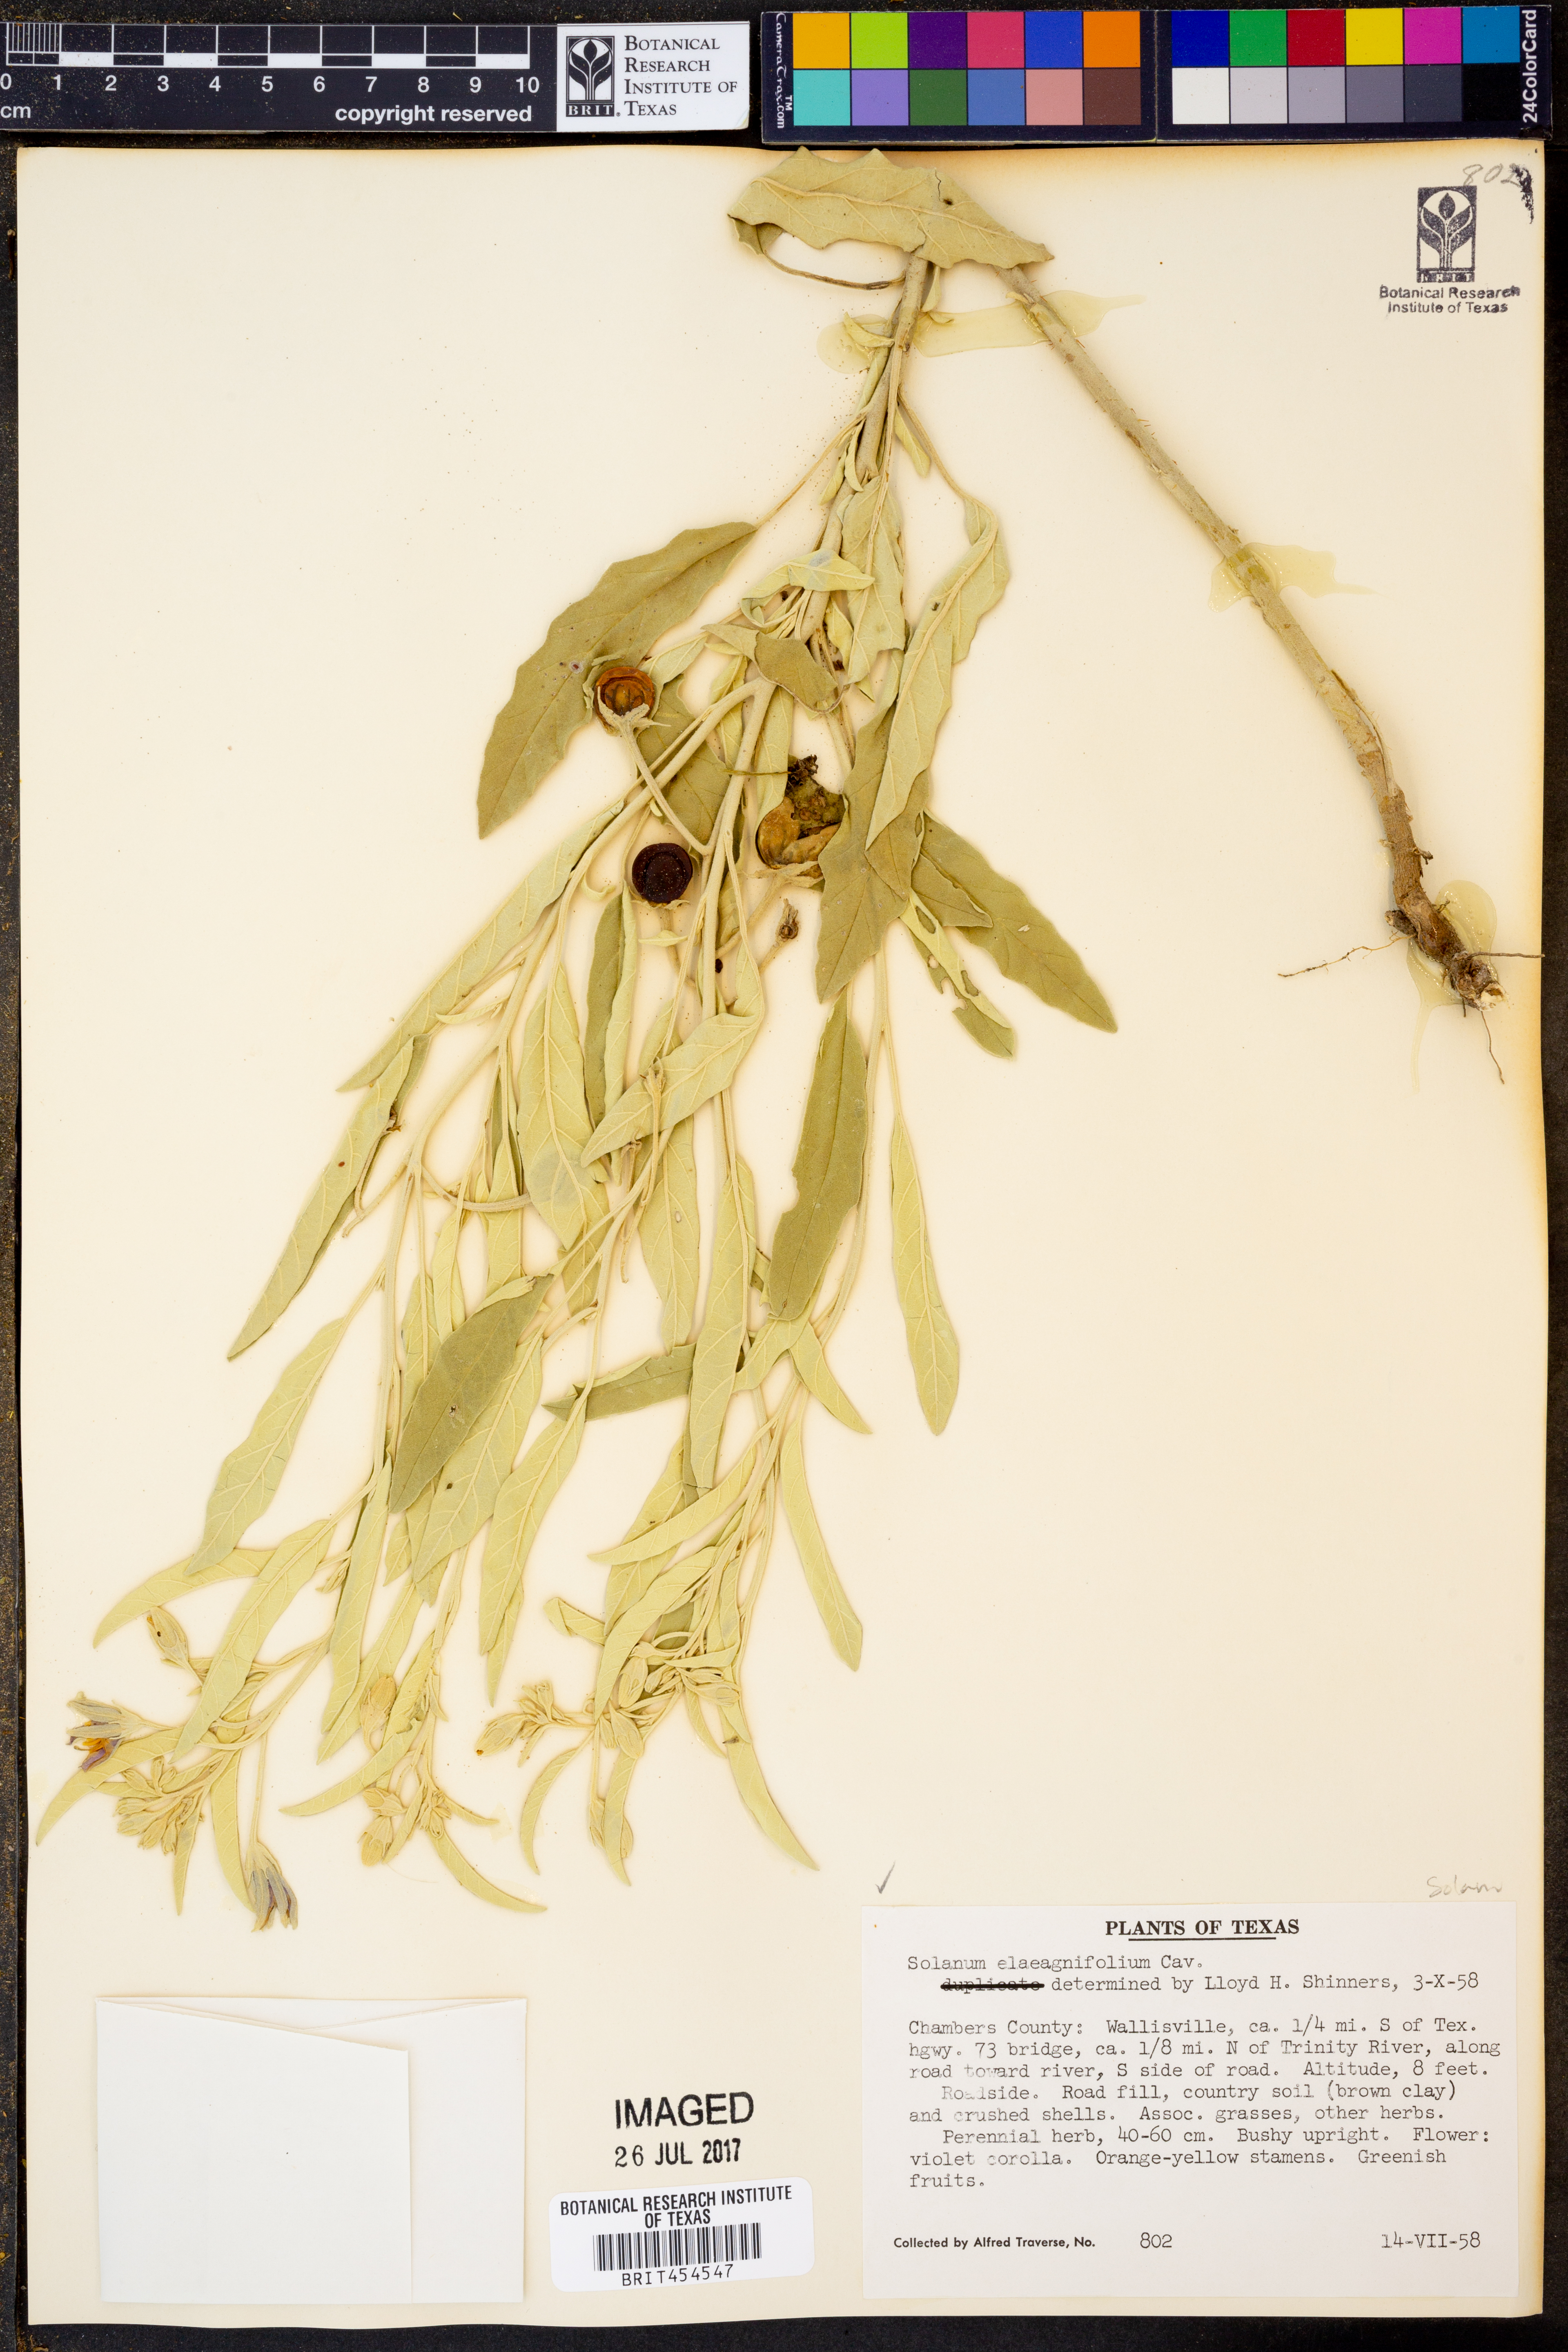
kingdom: Plantae
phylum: Tracheophyta
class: Magnoliopsida
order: Solanales
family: Solanaceae
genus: Solanum
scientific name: Solanum elaeagnifolium
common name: Silverleaf nightshade
